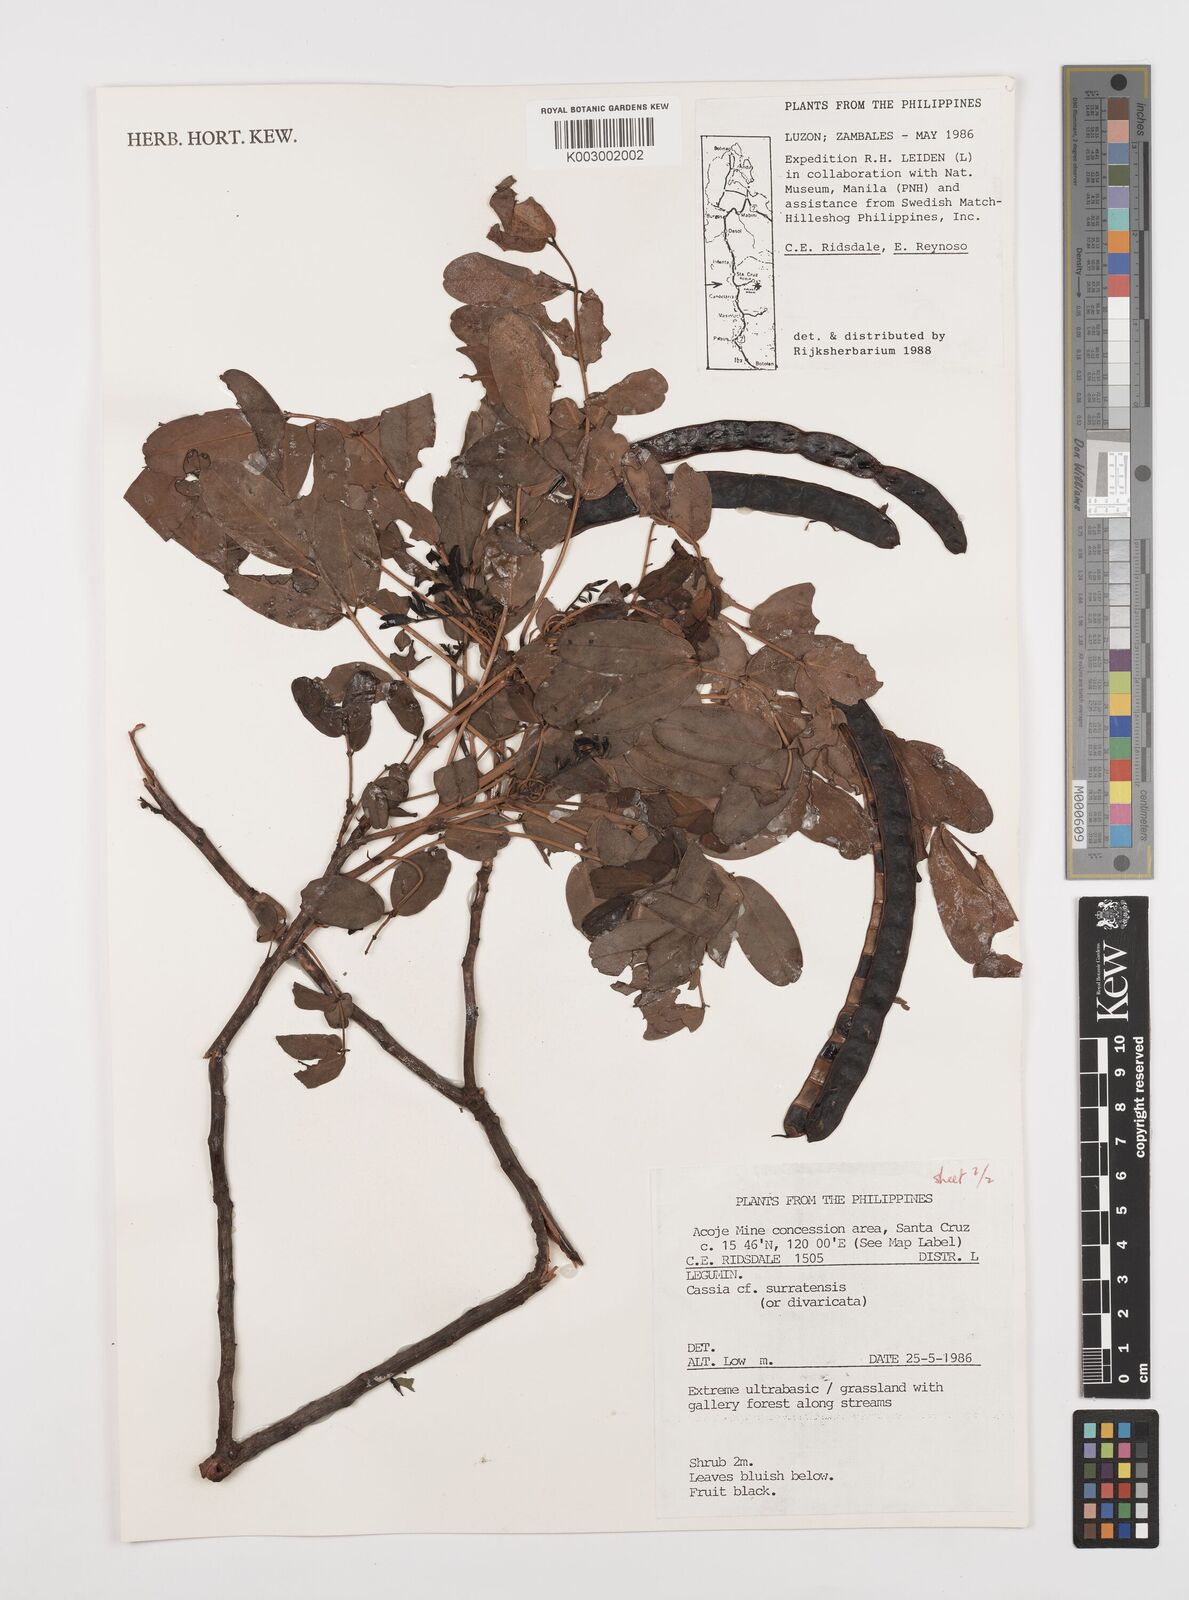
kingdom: Plantae
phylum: Tracheophyta
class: Magnoliopsida
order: Fabales
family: Fabaceae
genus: Senna
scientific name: Senna surattensis
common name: Glossy shower
